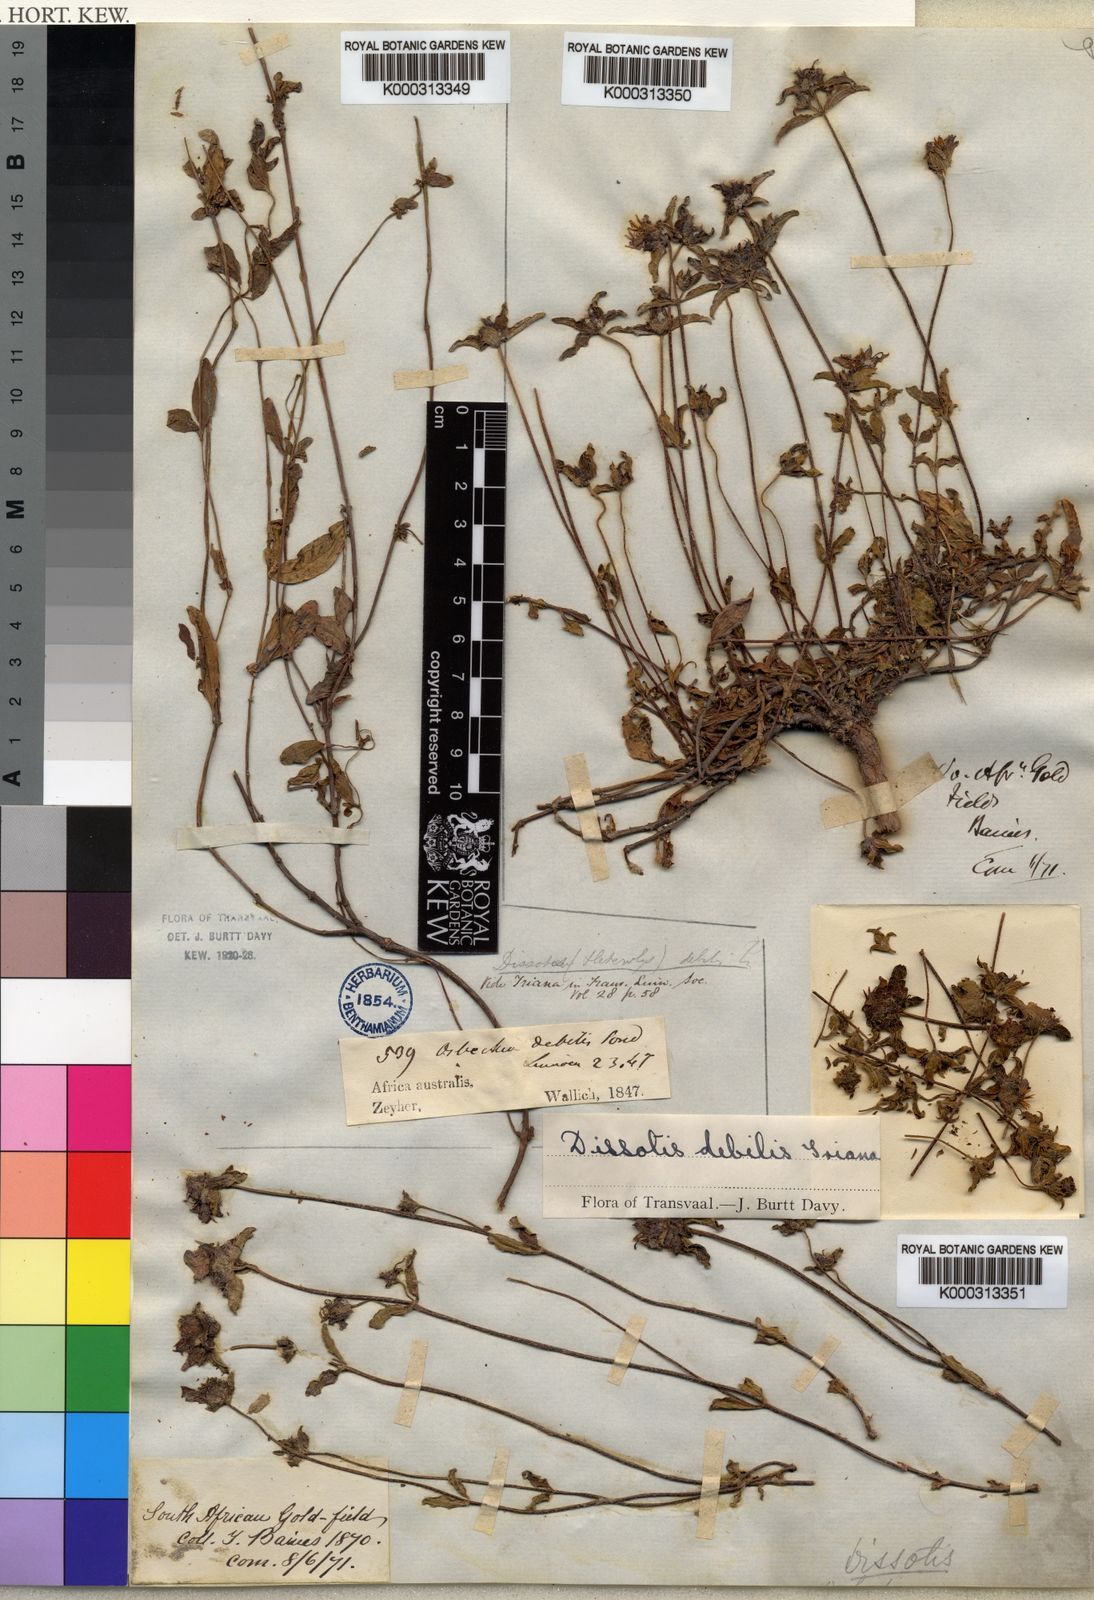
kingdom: Plantae
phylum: Tracheophyta
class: Magnoliopsida
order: Myrtales
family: Melastomataceae
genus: Antherotoma
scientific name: Antherotoma debilis
